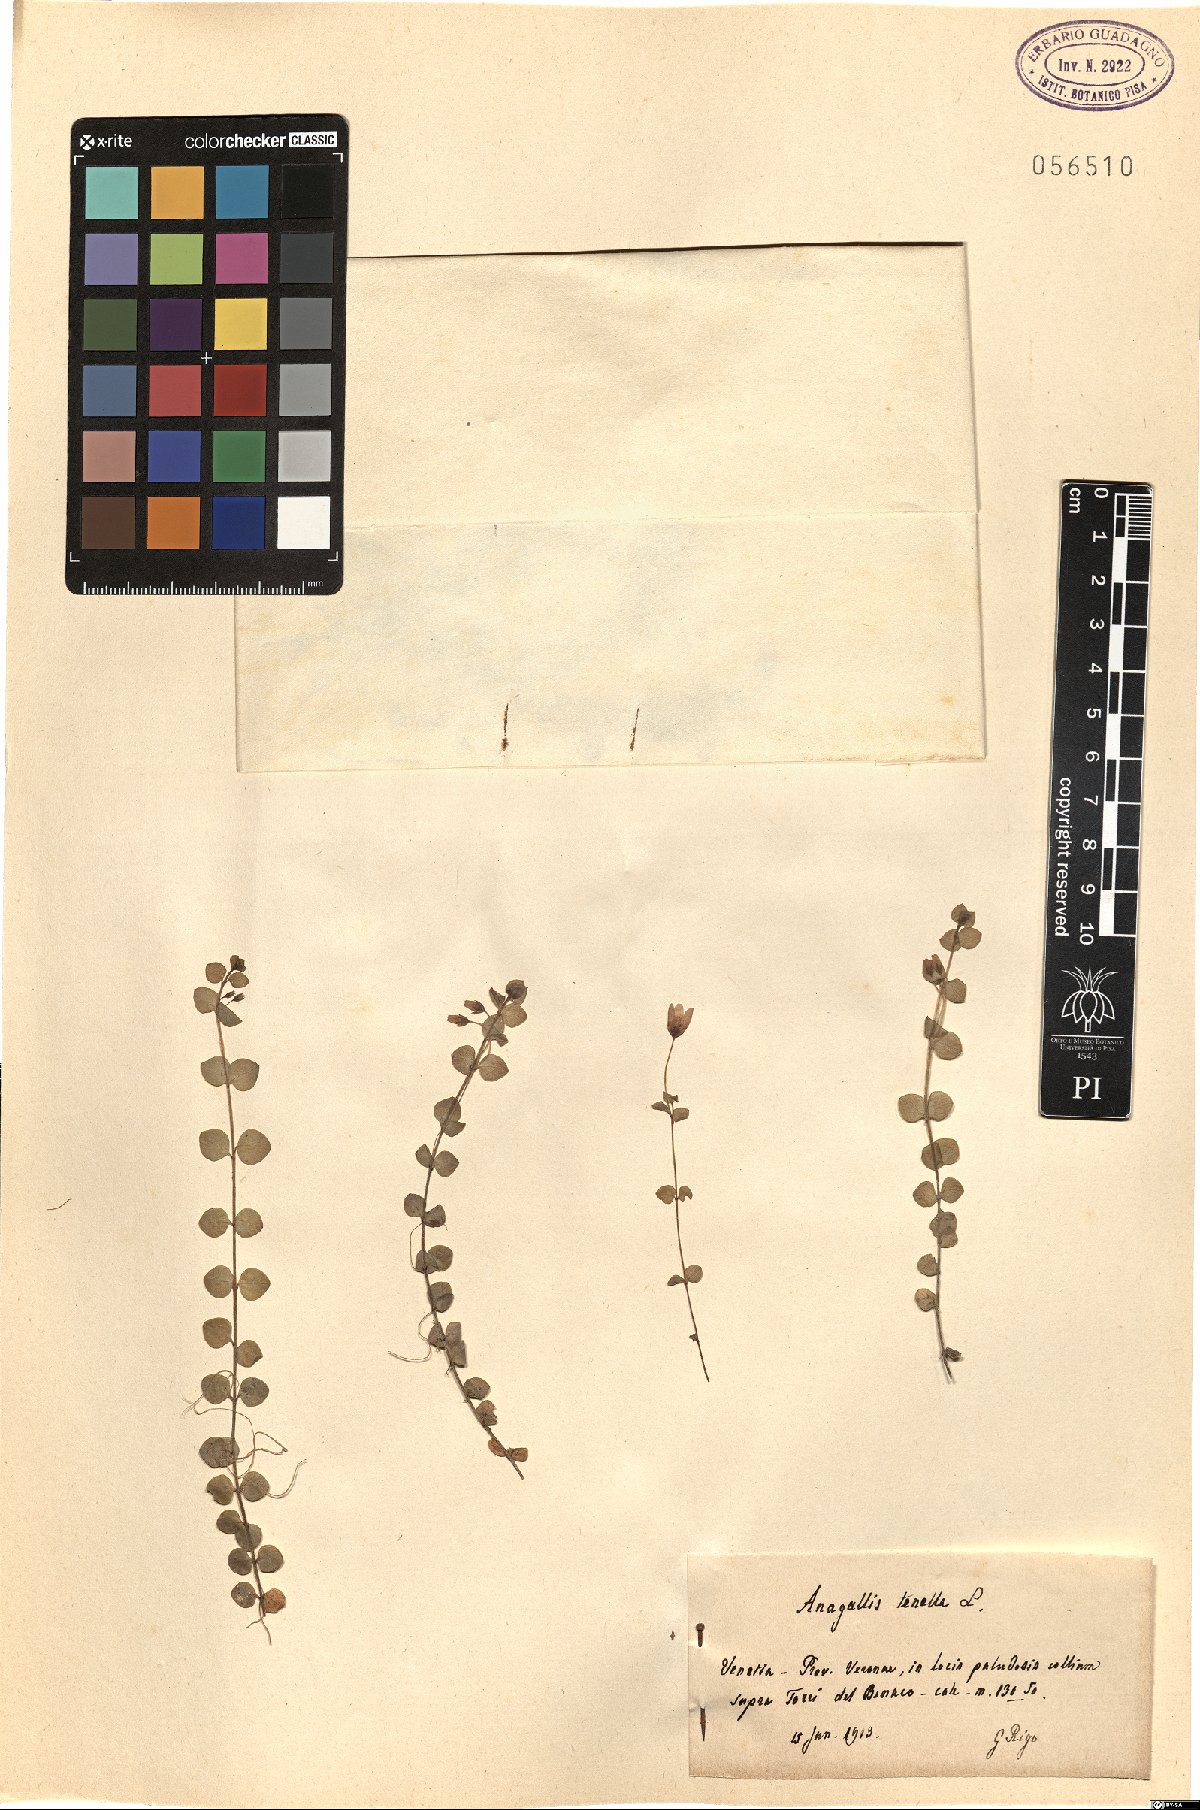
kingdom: Plantae
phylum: Tracheophyta
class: Magnoliopsida
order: Ericales
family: Primulaceae
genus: Lysimachia
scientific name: Lysimachia tenella
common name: European bog pimpernel
